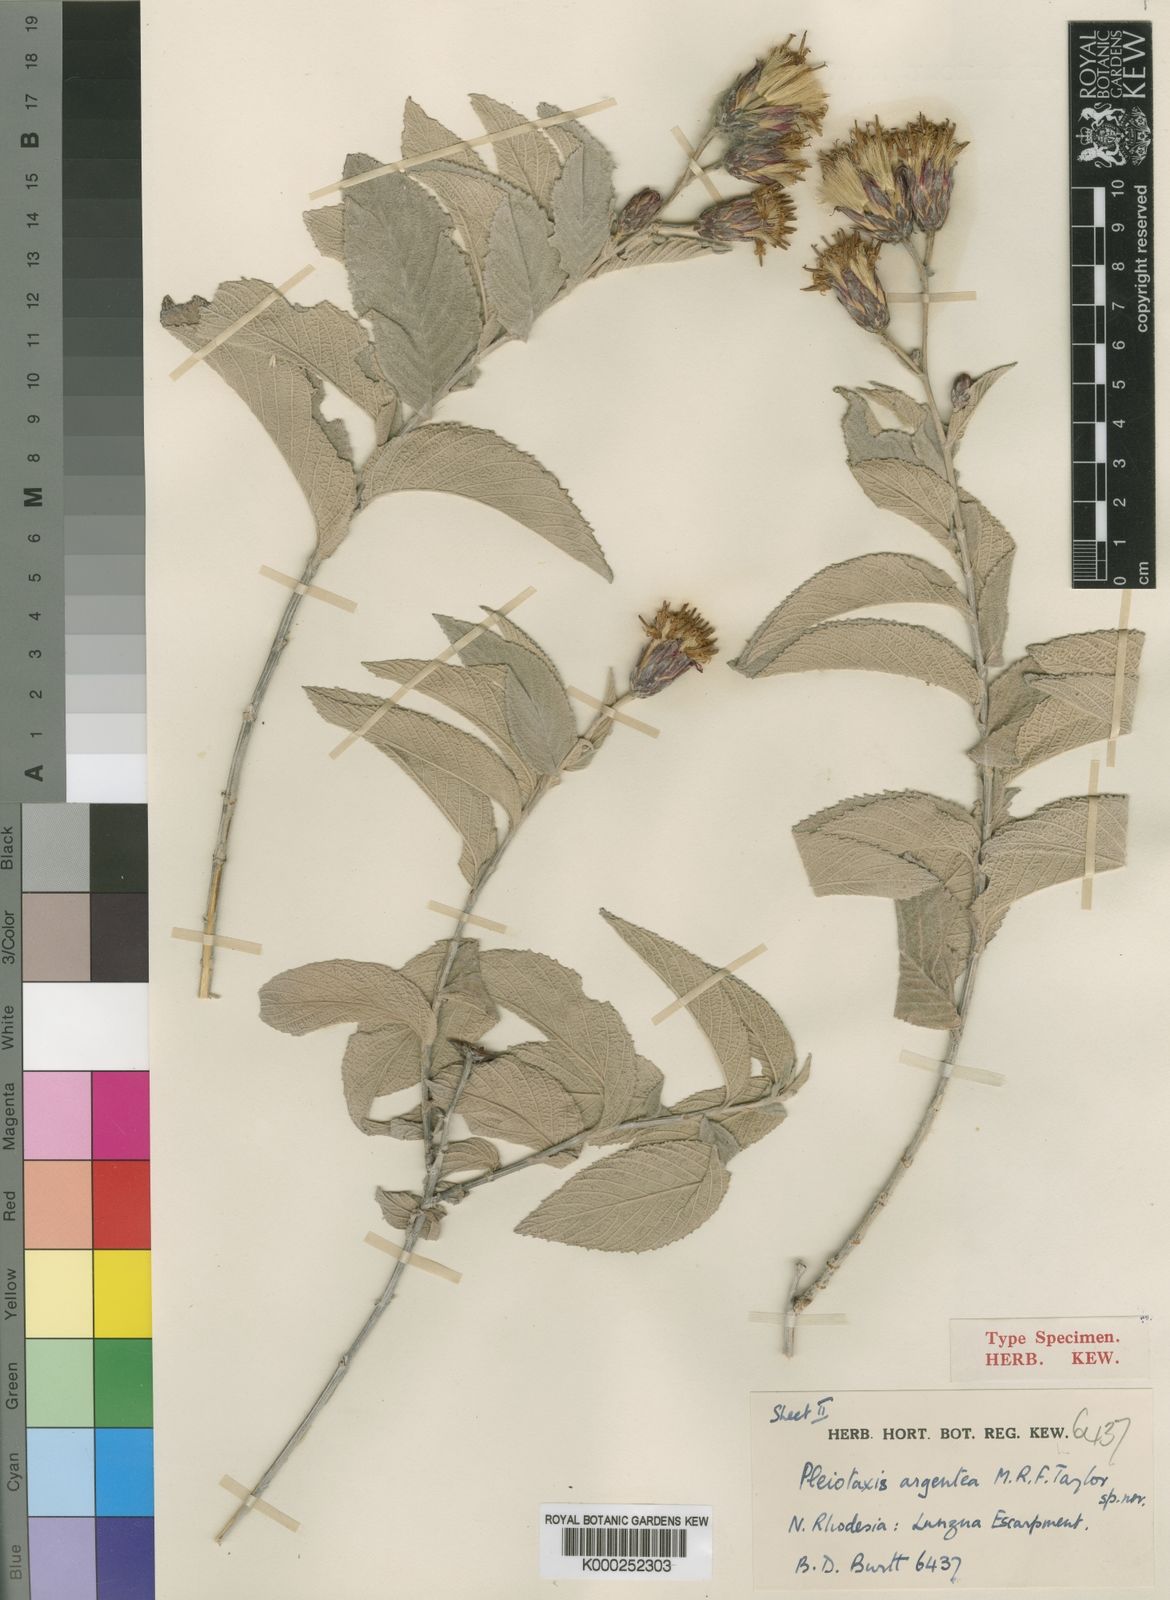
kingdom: Plantae
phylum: Tracheophyta
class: Magnoliopsida
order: Asterales
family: Asteraceae
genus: Pleiotaxis
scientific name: Pleiotaxis huillensis
